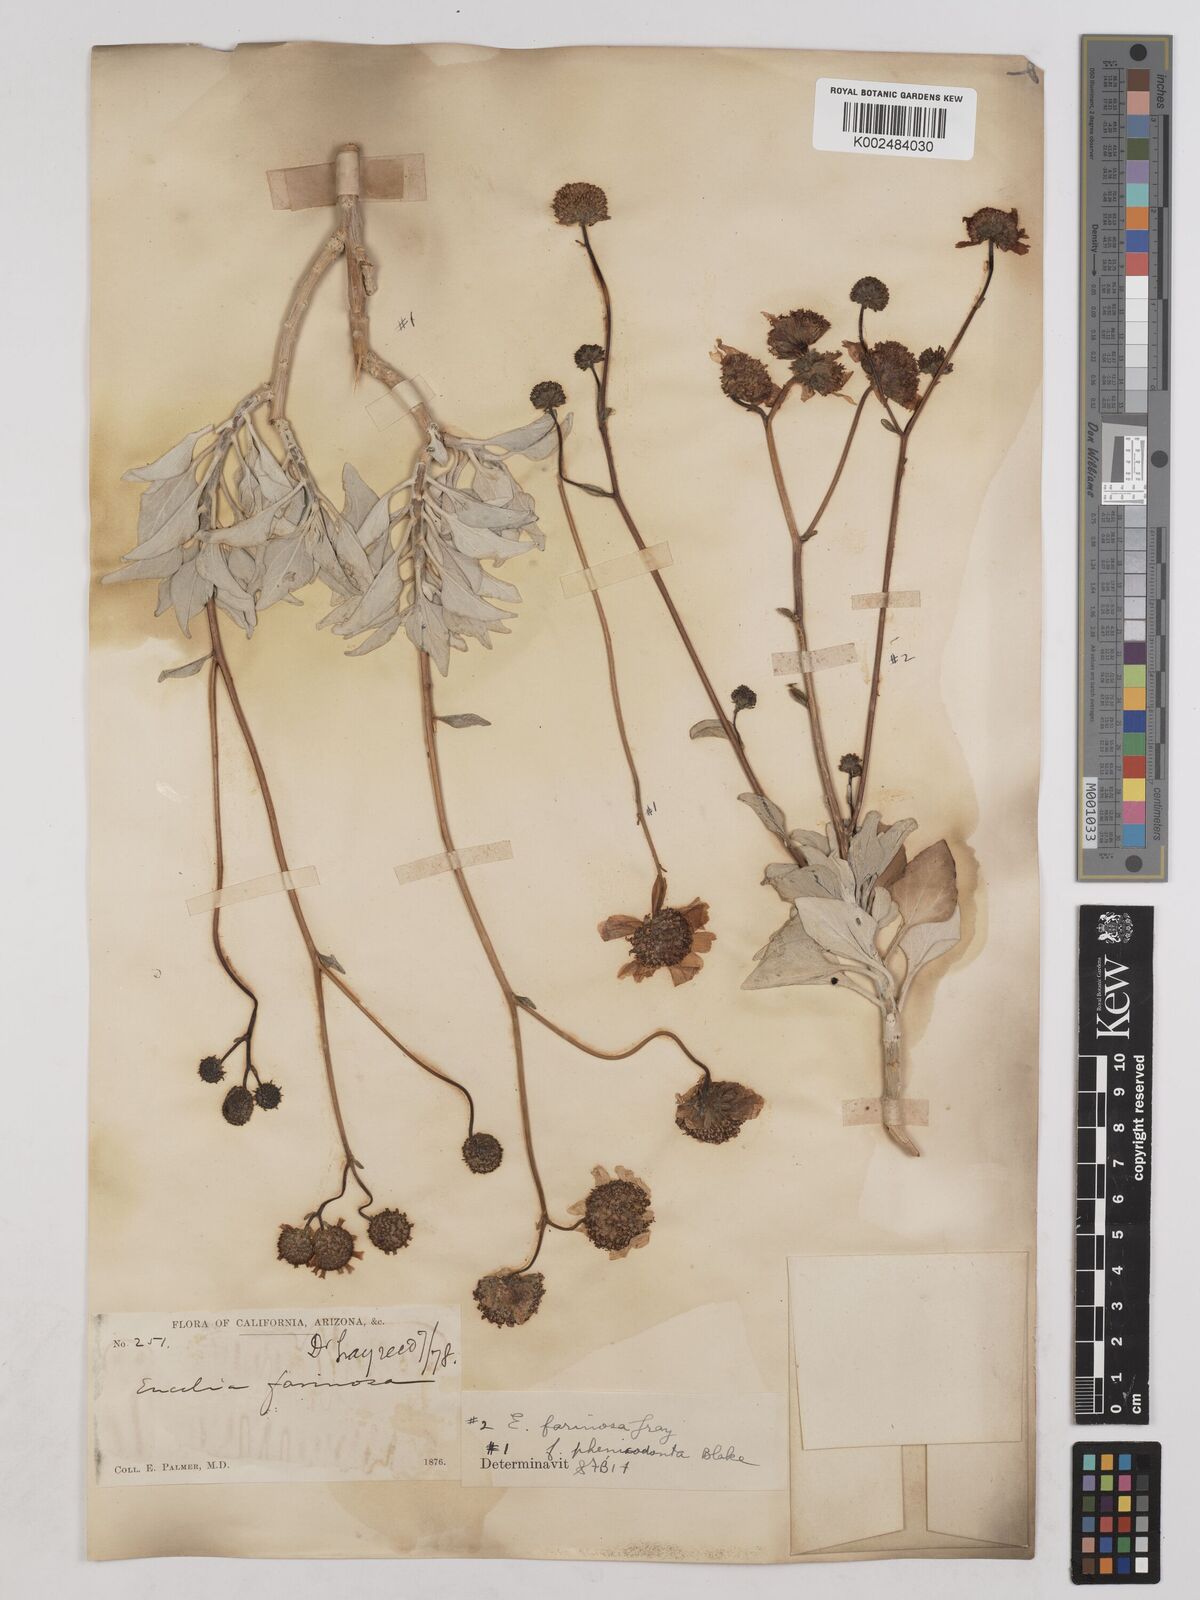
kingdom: Plantae
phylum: Tracheophyta
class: Magnoliopsida
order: Asterales
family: Asteraceae
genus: Encelia
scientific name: Encelia farinosa
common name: Brittlebush
